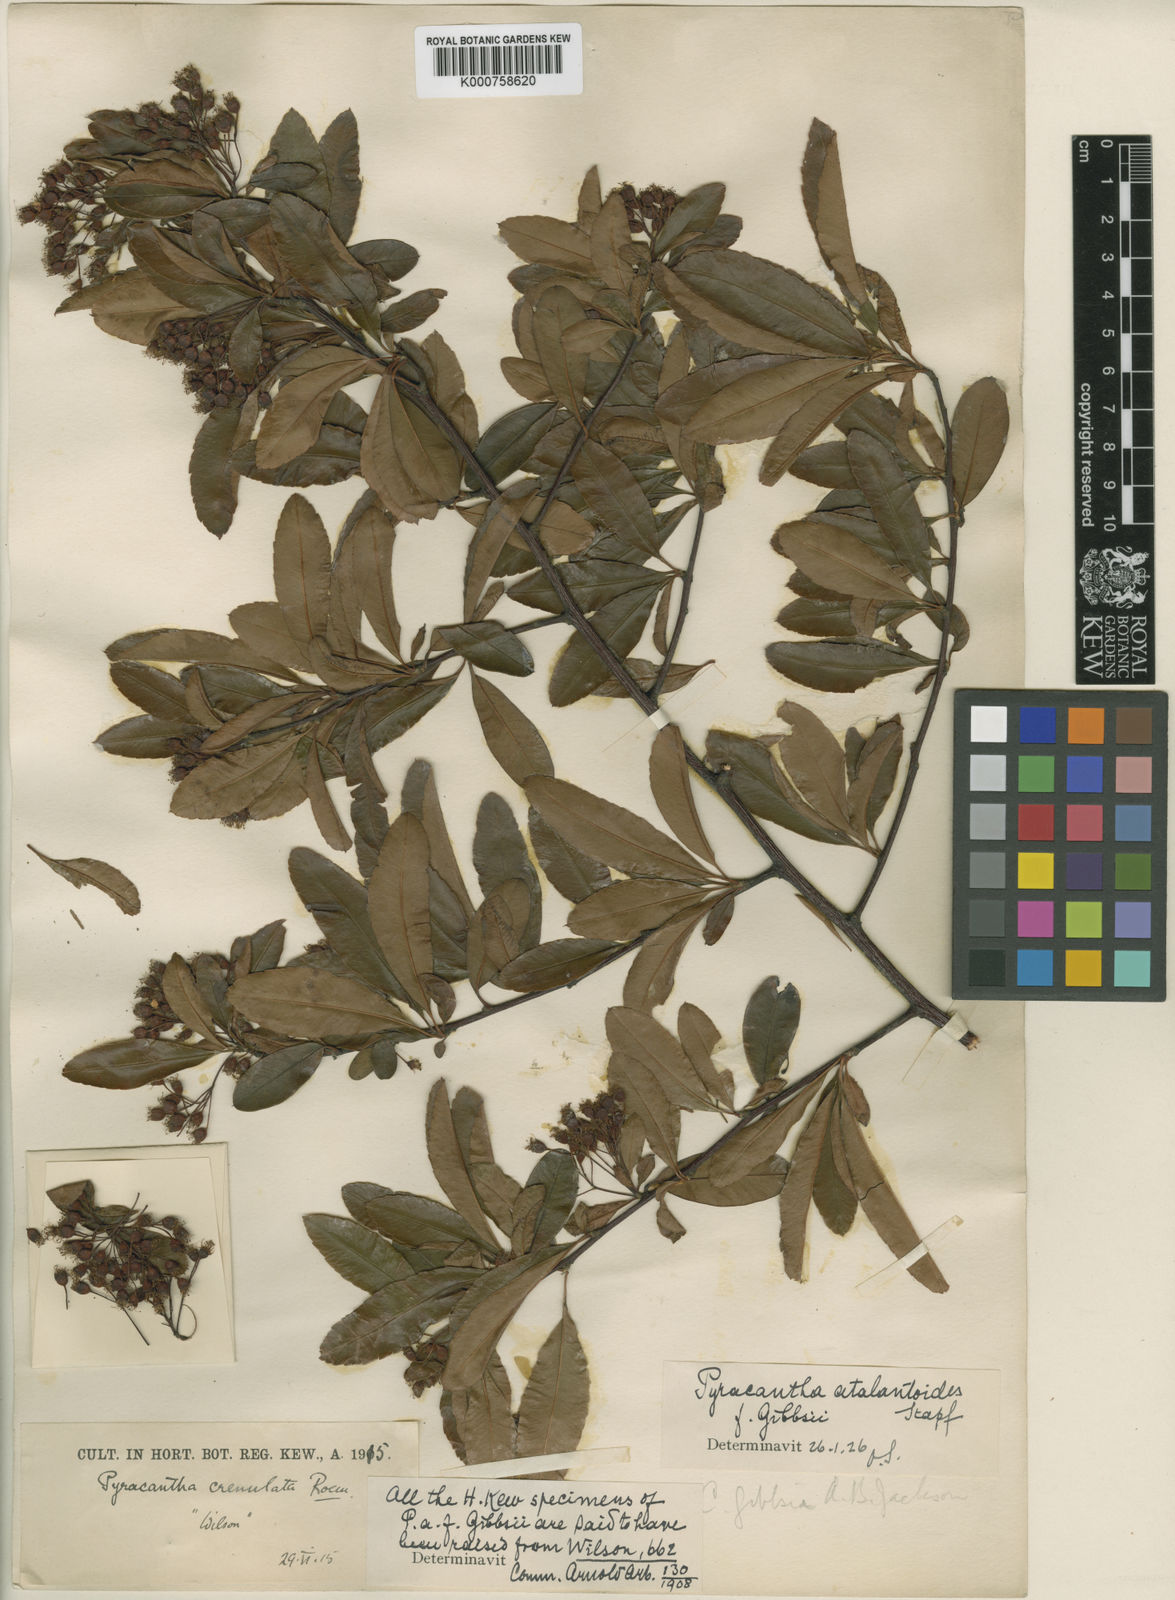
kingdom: Plantae
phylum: Tracheophyta
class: Magnoliopsida
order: Rosales
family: Rosaceae
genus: Pyracantha
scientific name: Pyracantha atalantioides
